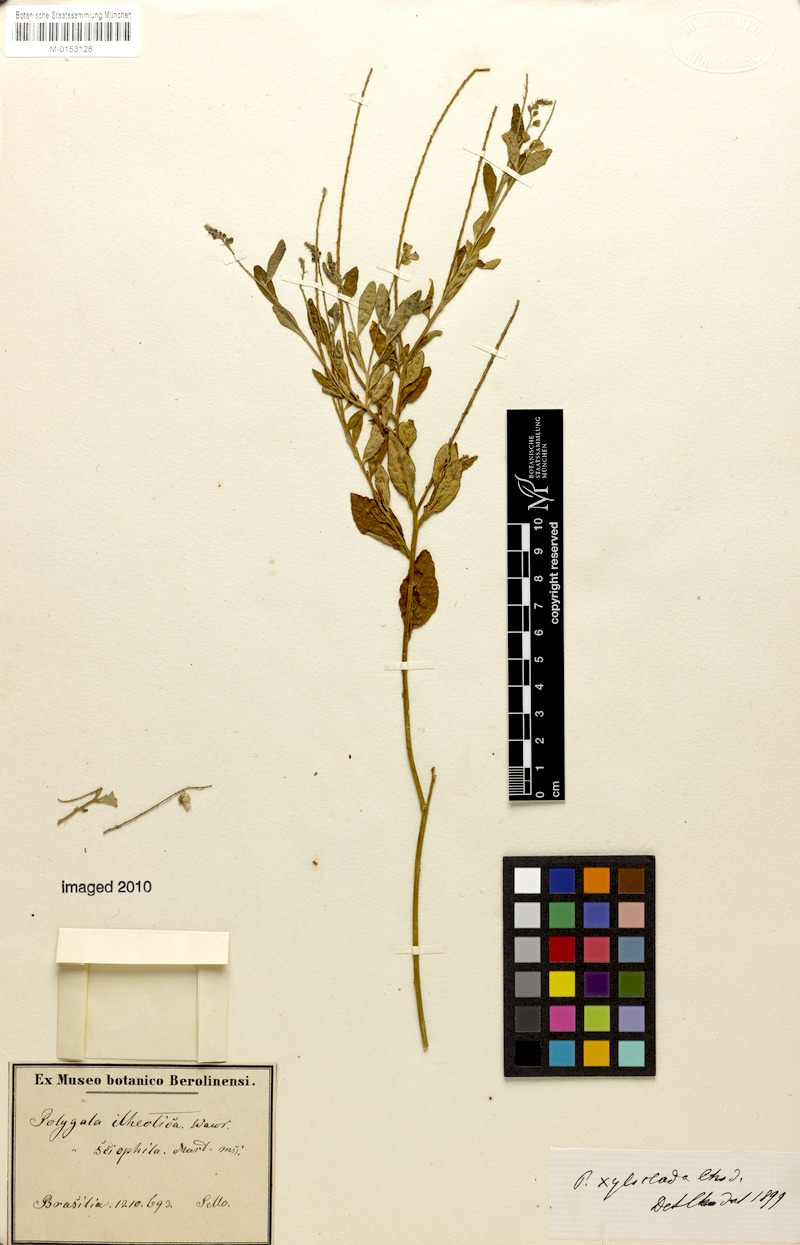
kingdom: Plantae
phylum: Tracheophyta
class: Magnoliopsida
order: Fabales
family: Polygalaceae
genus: Asemeia
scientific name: Asemeia monninoides
